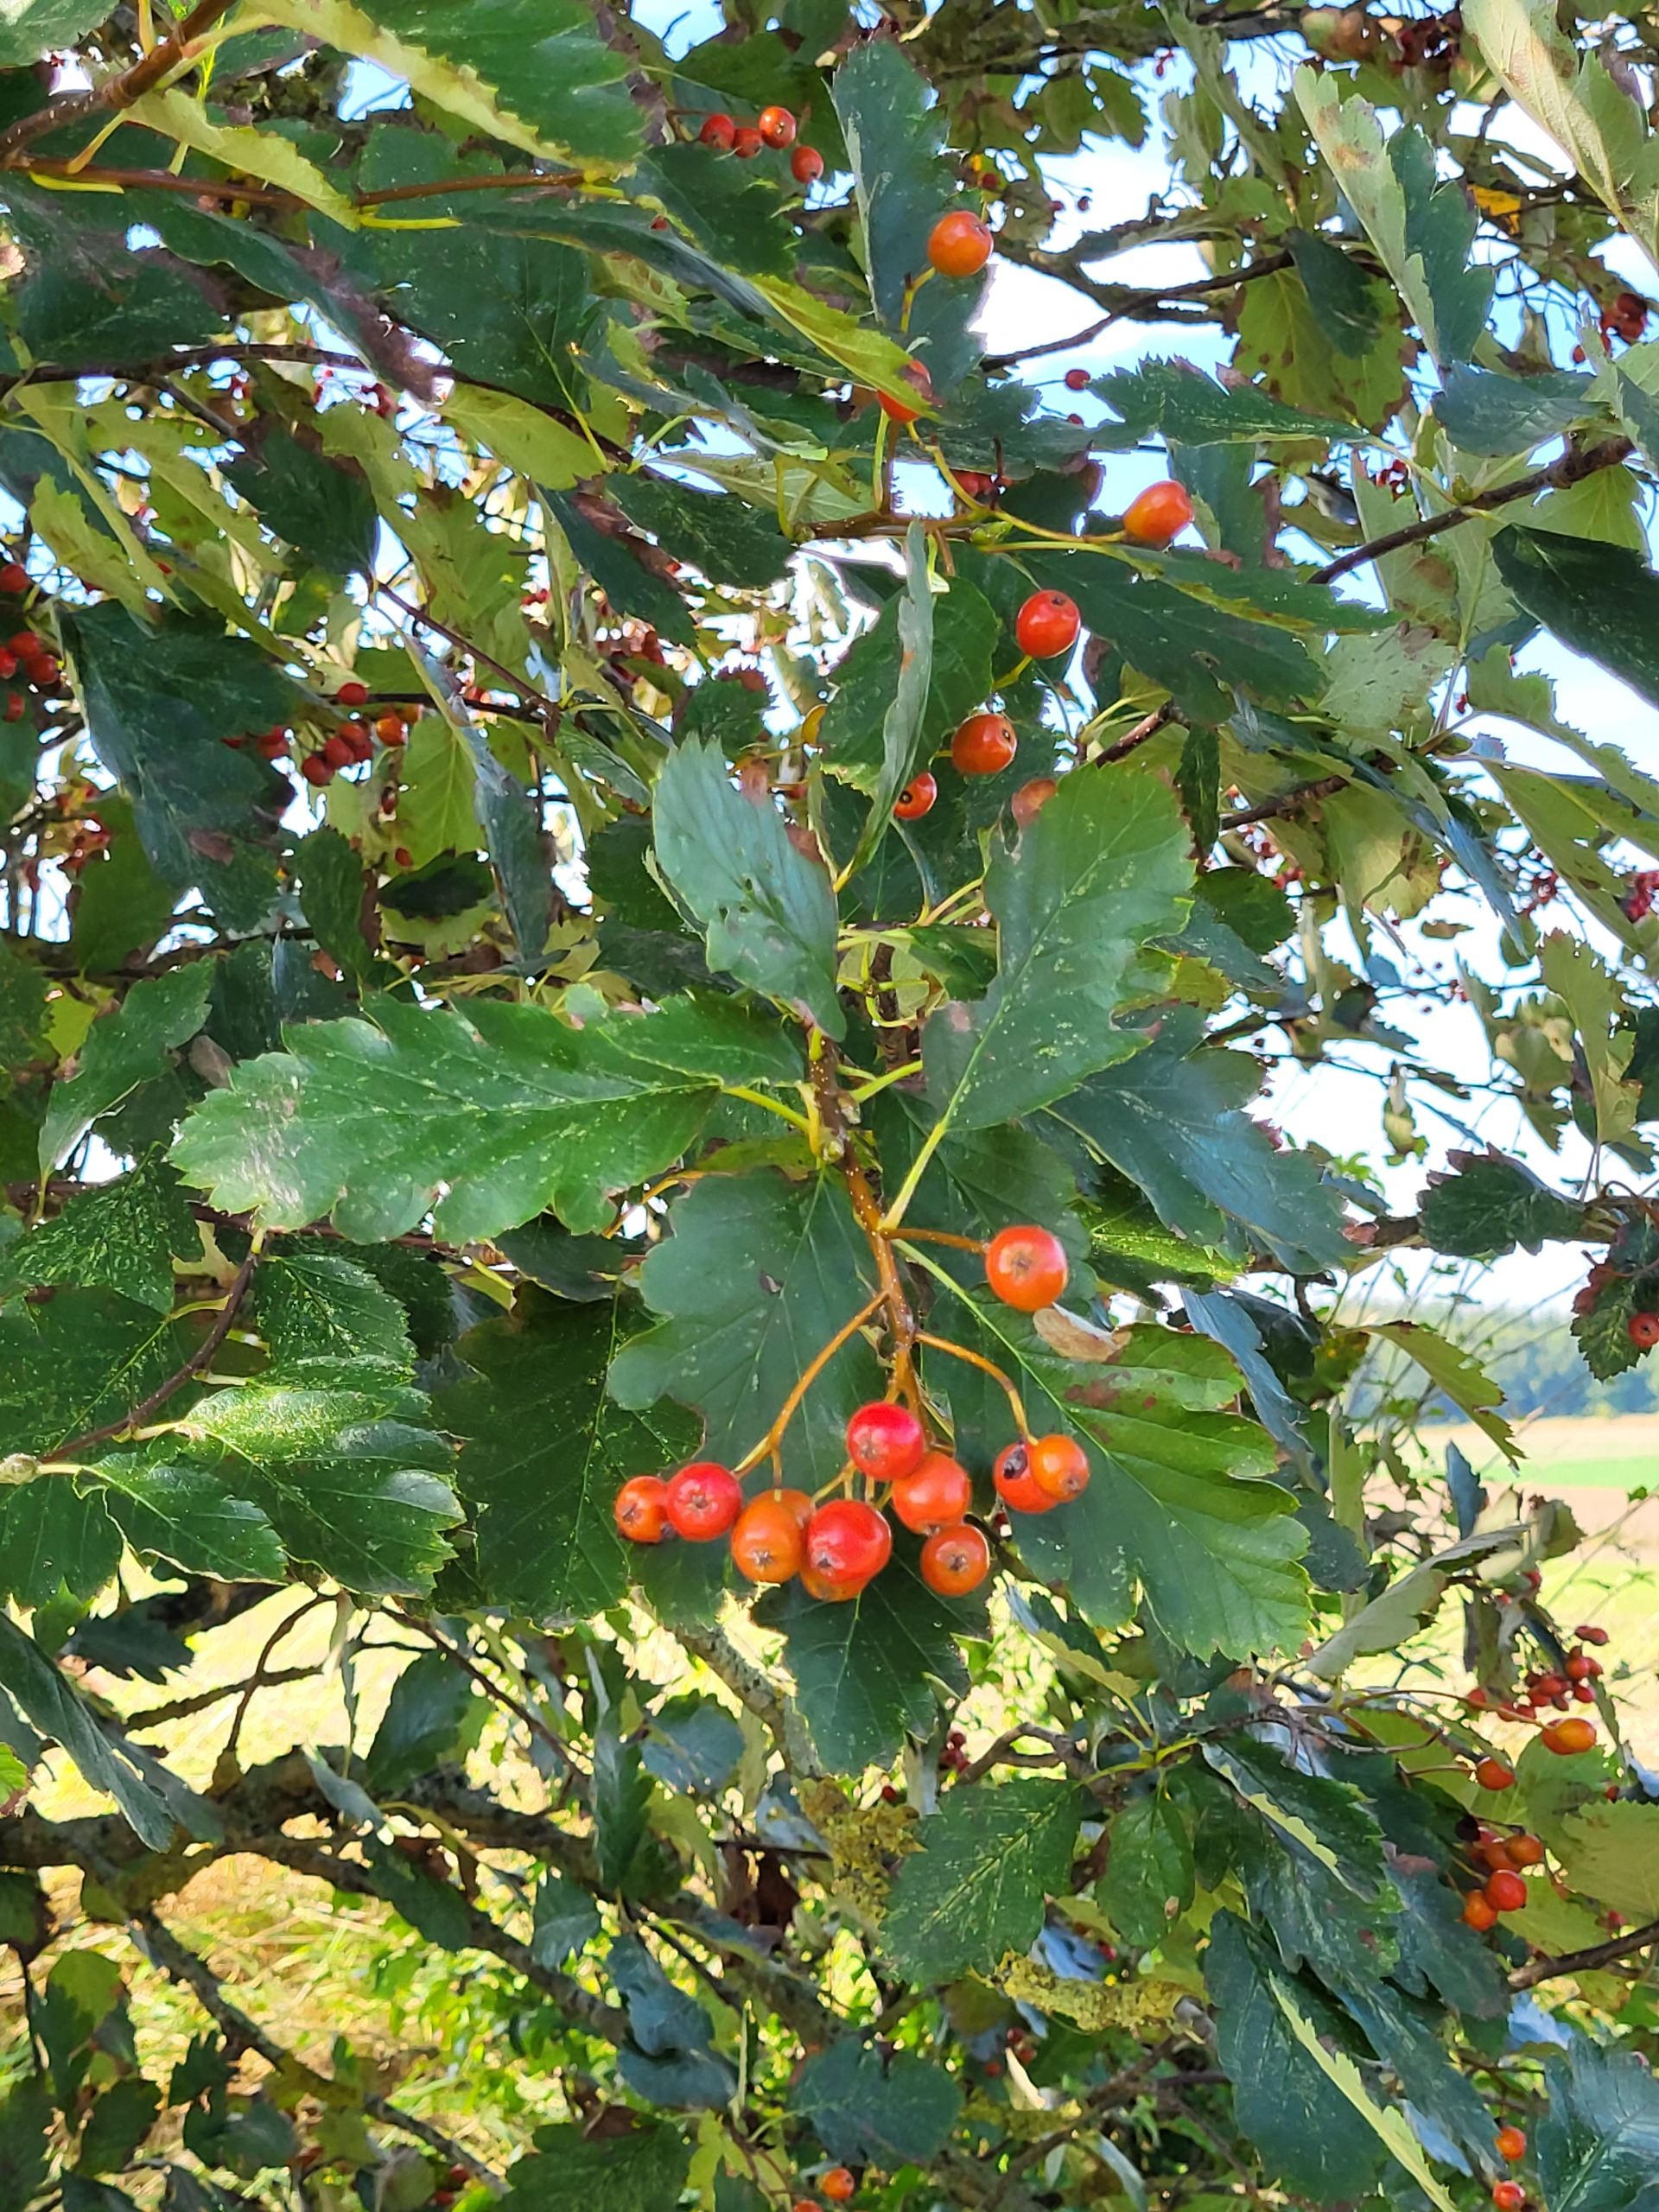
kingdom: Plantae
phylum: Tracheophyta
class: Magnoliopsida
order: Rosales
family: Rosaceae
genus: Scandosorbus
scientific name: Scandosorbus intermedia
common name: Selje-røn
